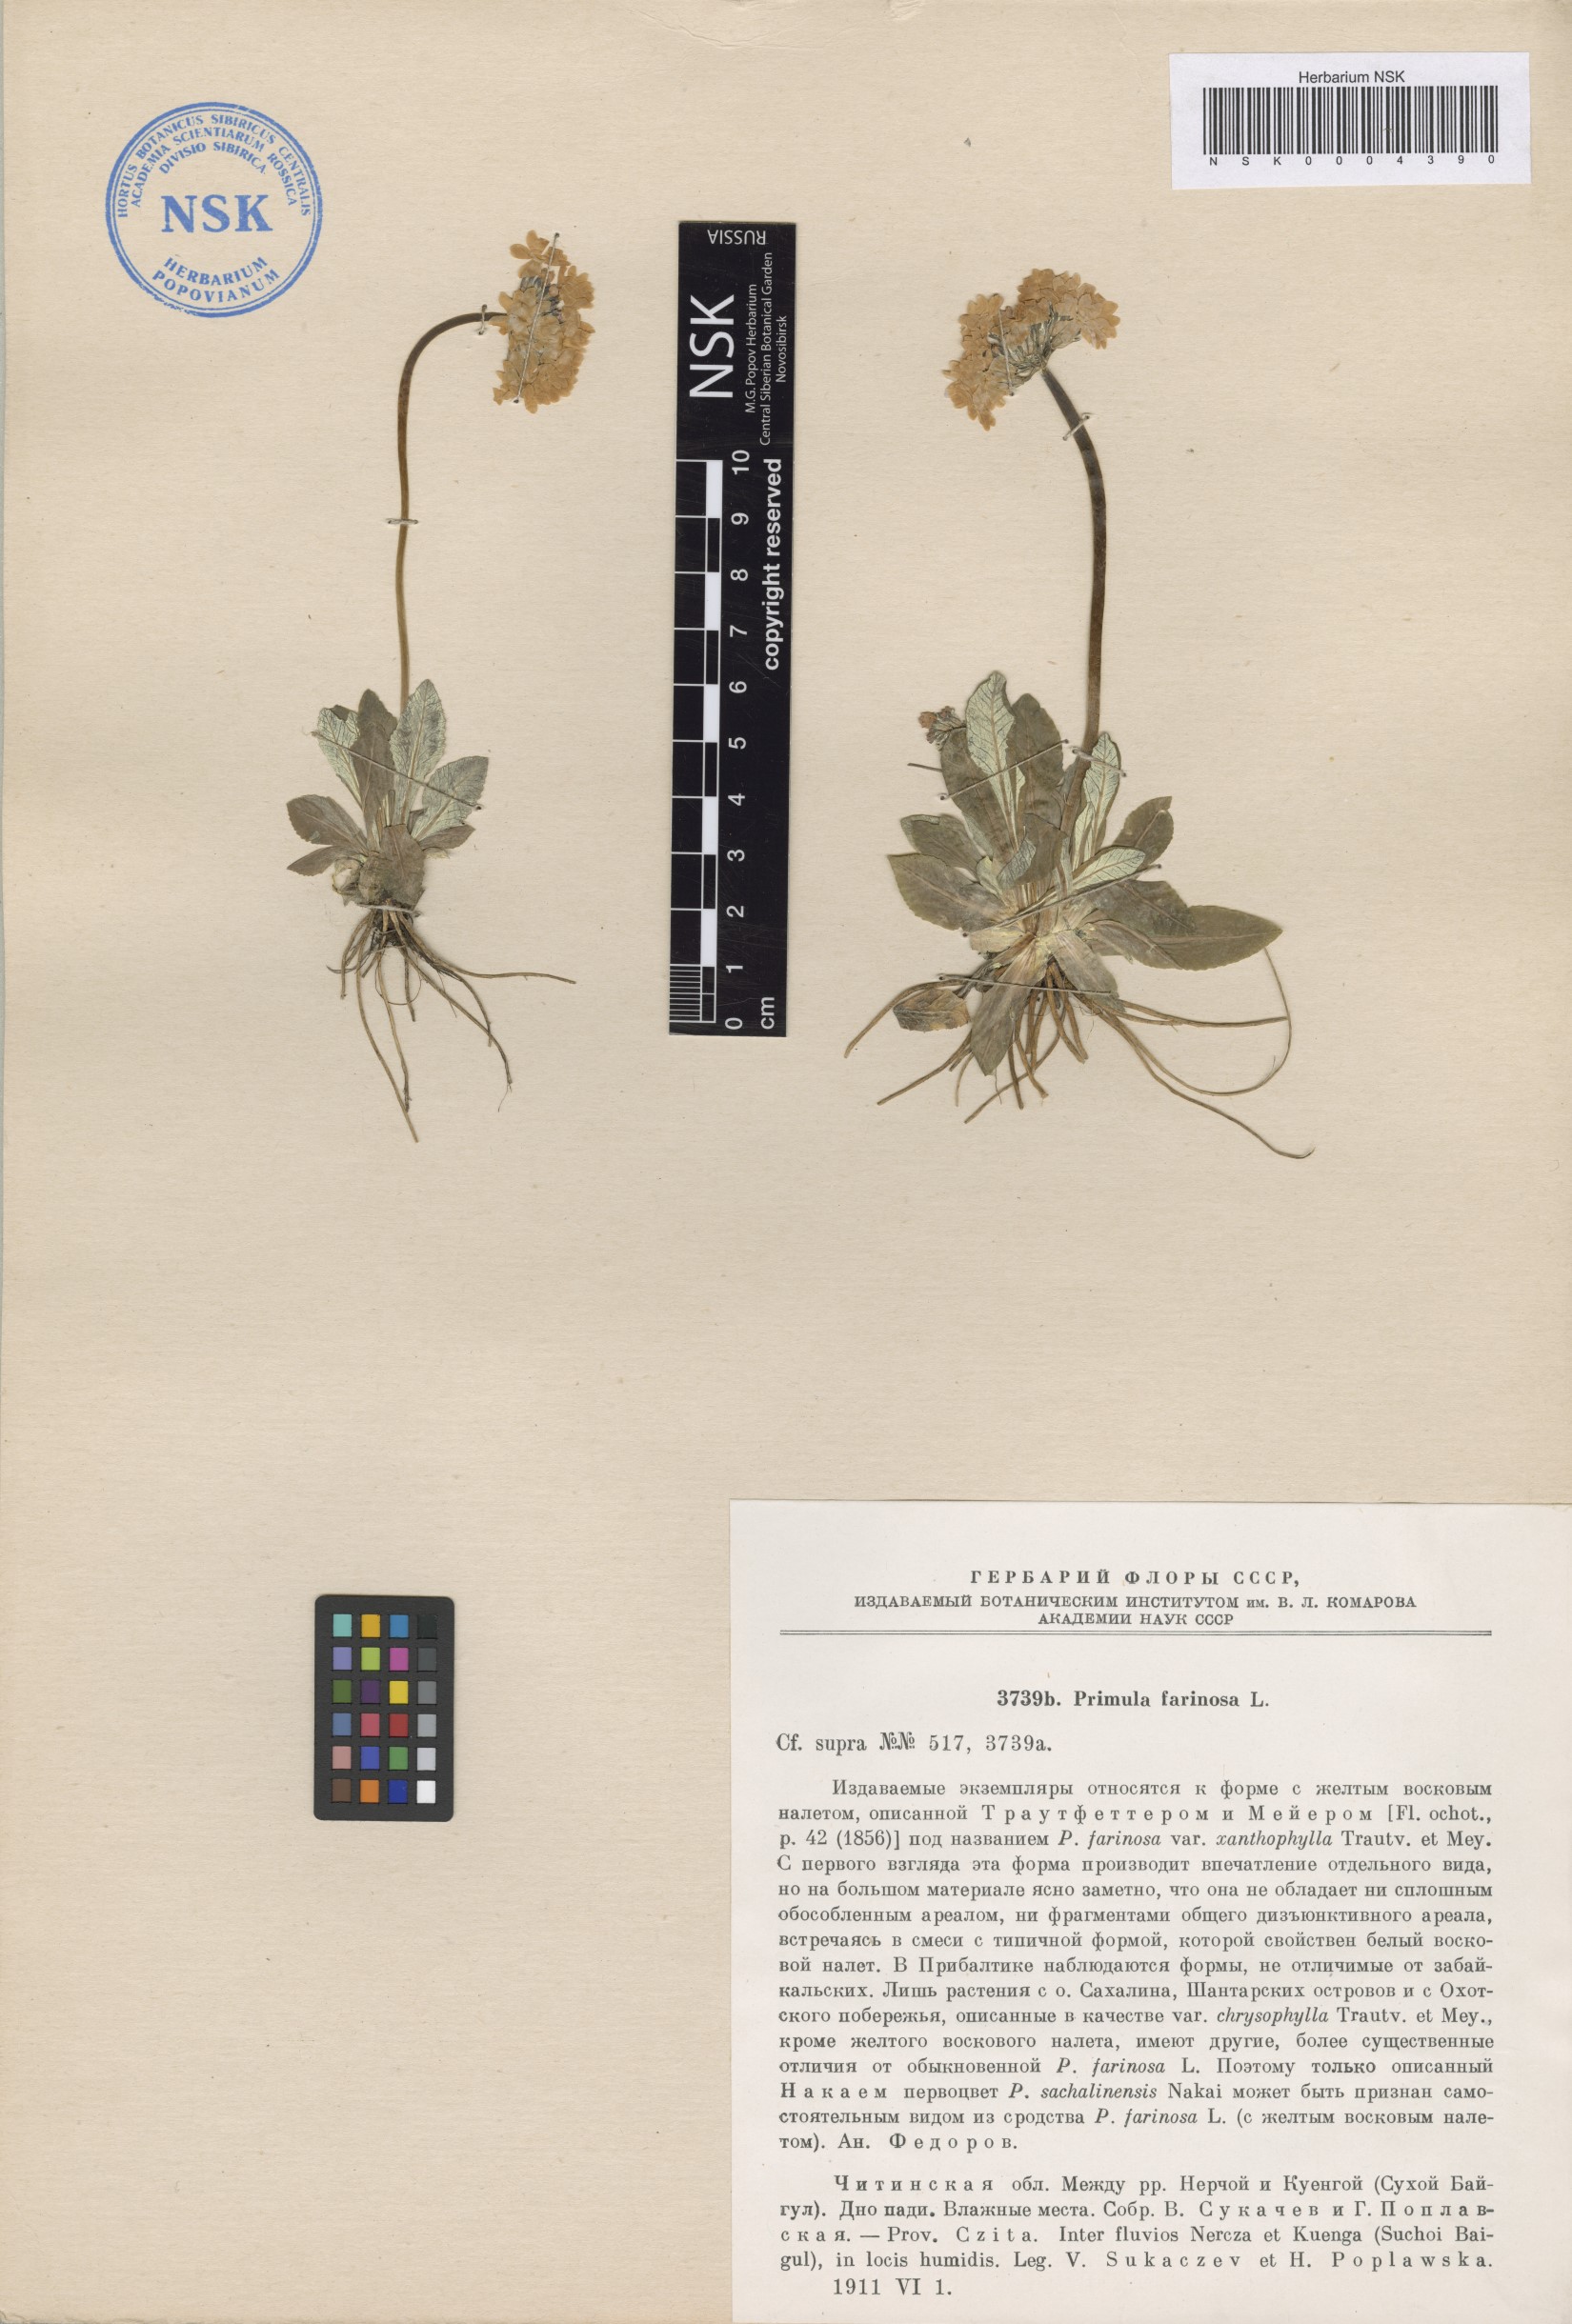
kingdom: Plantae
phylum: Tracheophyta
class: Magnoliopsida
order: Ericales
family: Primulaceae
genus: Primula
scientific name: Primula farinosa
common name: Bird's-eye primrose
